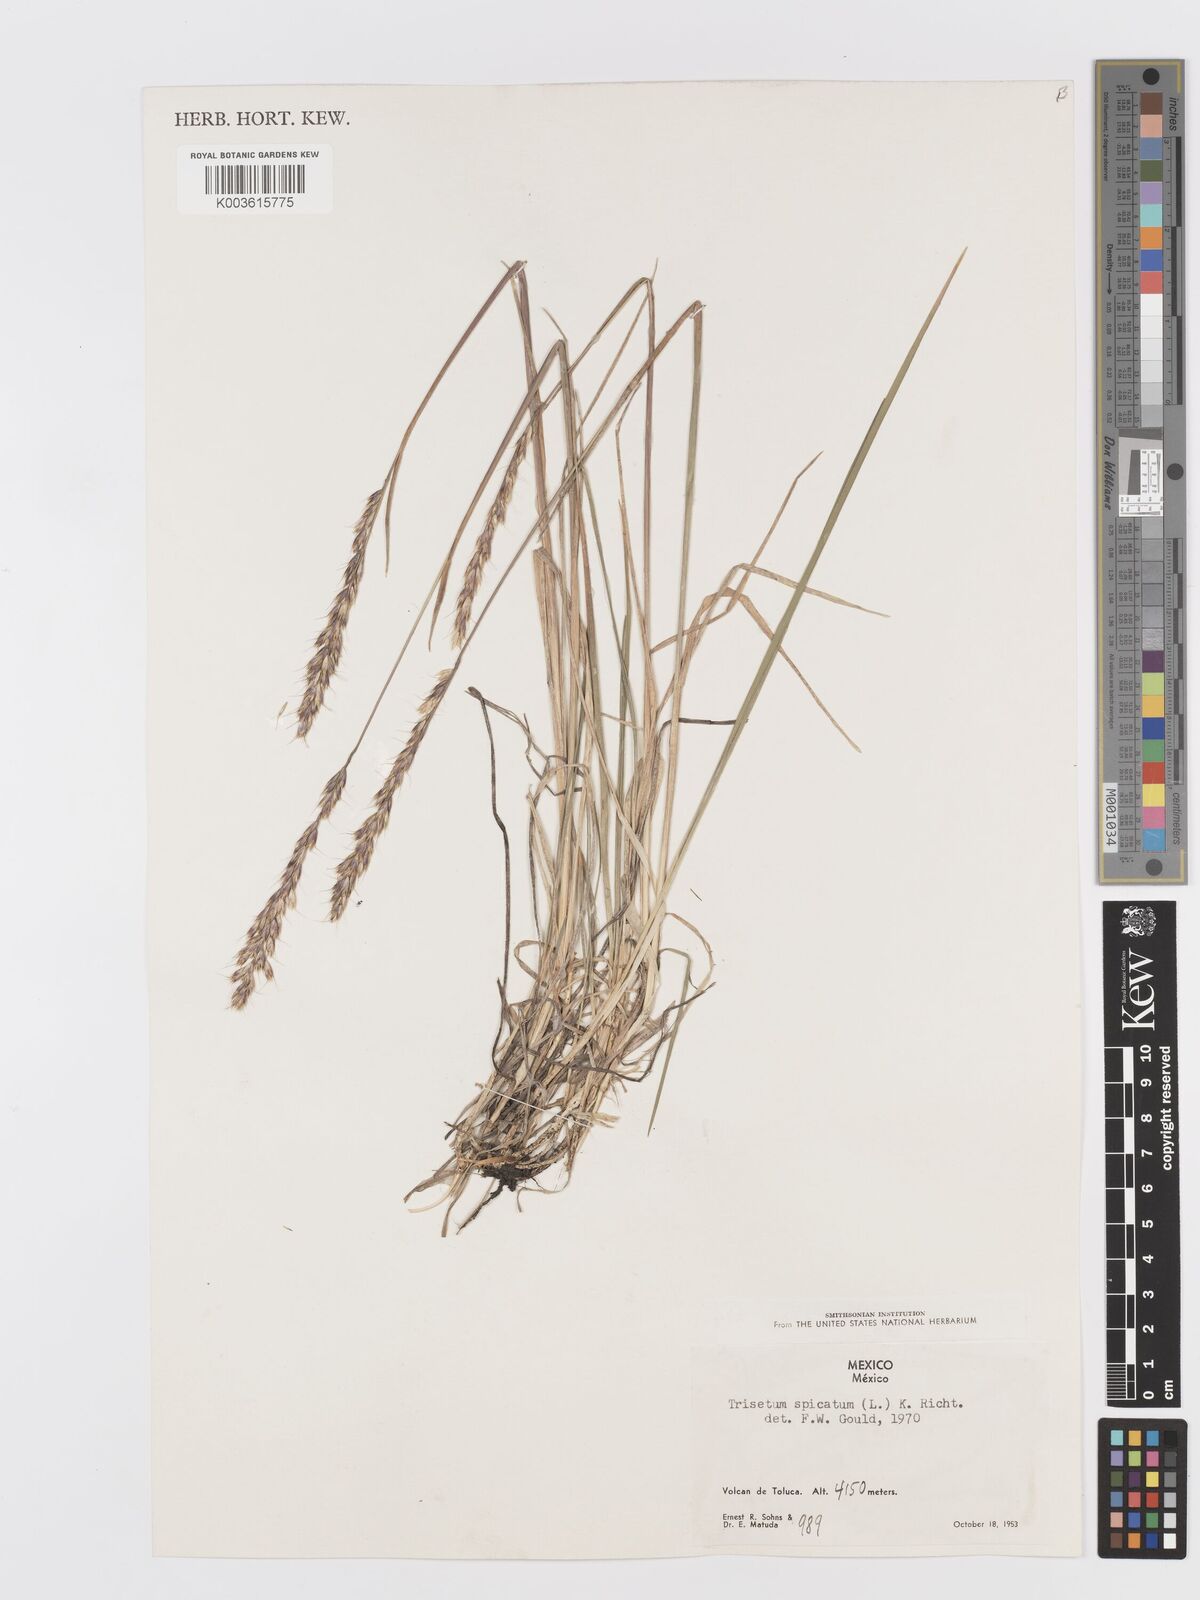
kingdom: Plantae
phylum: Tracheophyta
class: Liliopsida
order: Poales
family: Poaceae
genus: Koeleria
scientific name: Koeleria spicata
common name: Mountain trisetum
